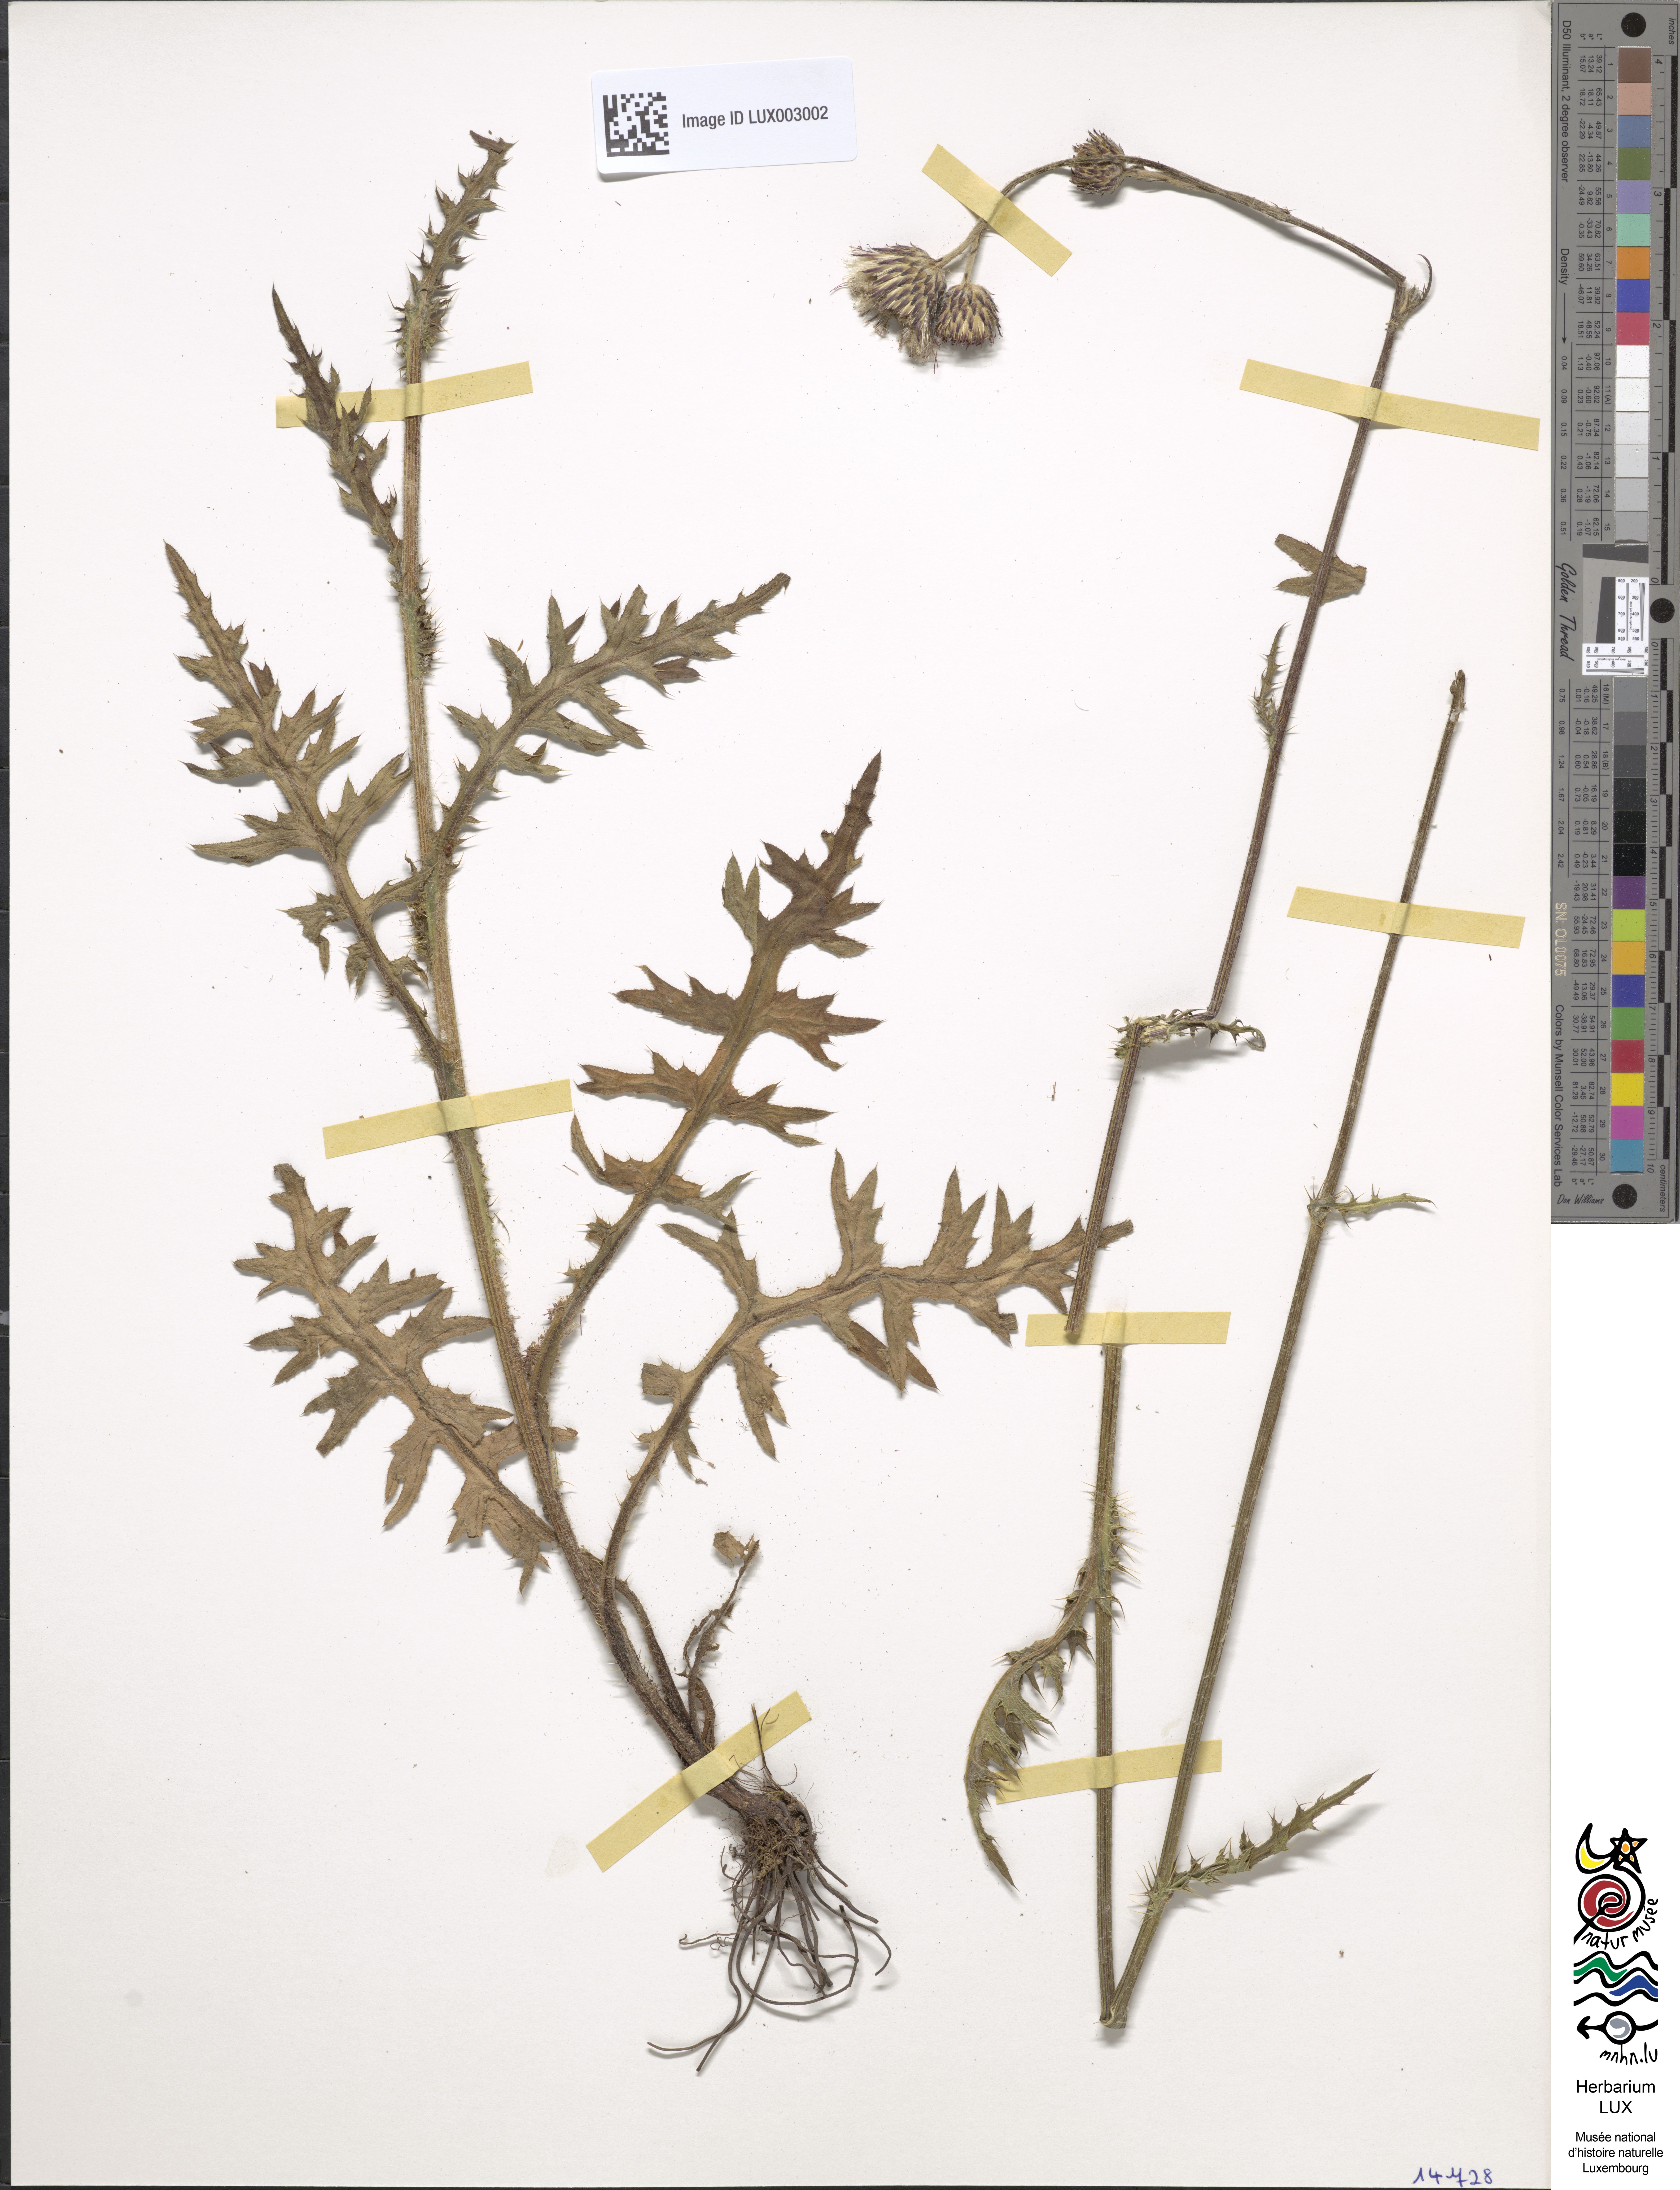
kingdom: Plantae
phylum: Tracheophyta
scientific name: Tracheophyta
